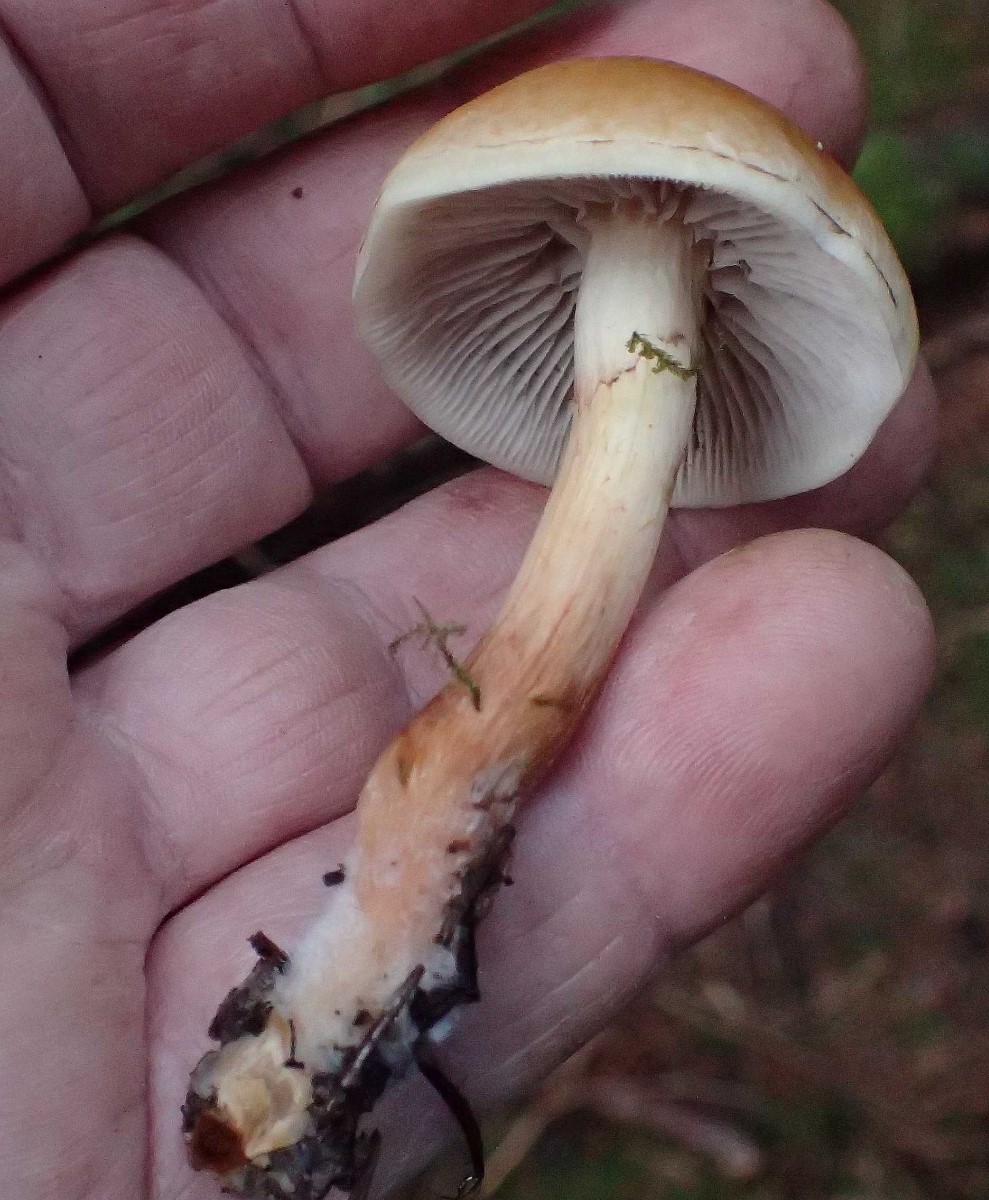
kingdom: Fungi
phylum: Basidiomycota
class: Agaricomycetes
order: Agaricales
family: Strophariaceae
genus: Hypholoma
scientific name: Hypholoma capnoides
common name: gran-svovlhat
